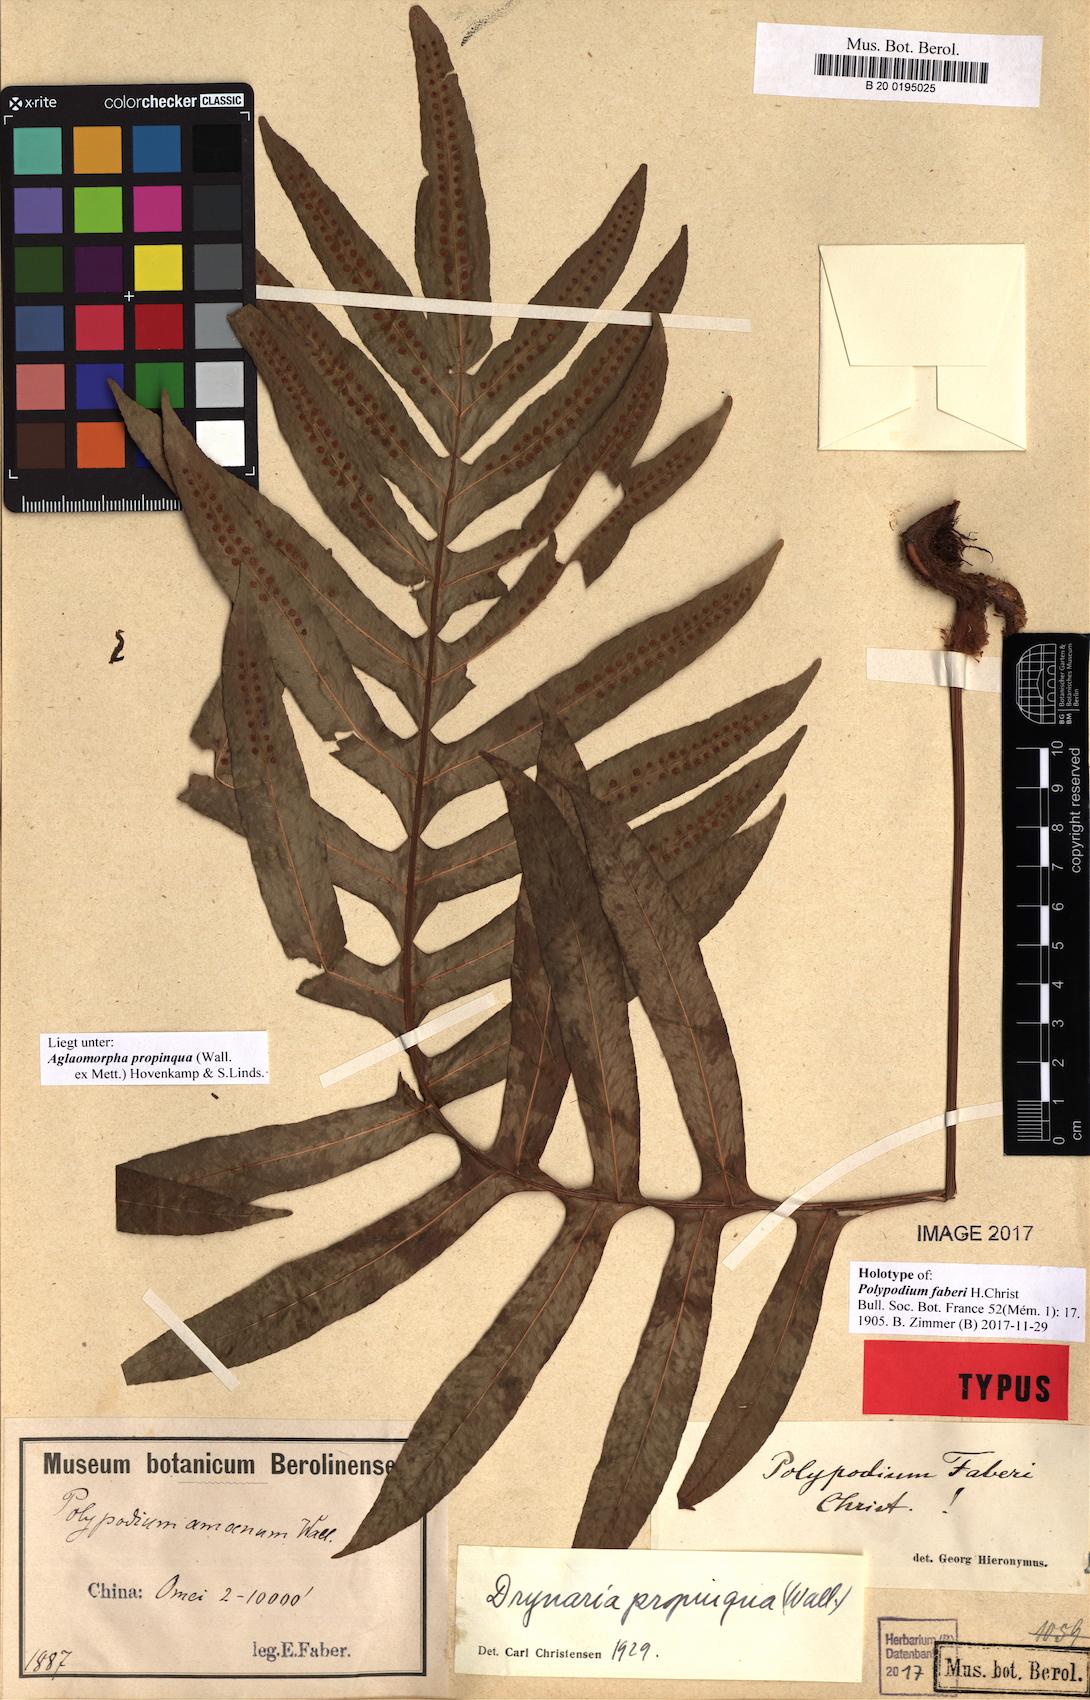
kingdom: Plantae
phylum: Tracheophyta
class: Polypodiopsida
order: Polypodiales
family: Polypodiaceae
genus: Drynaria
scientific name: Drynaria propinqua
